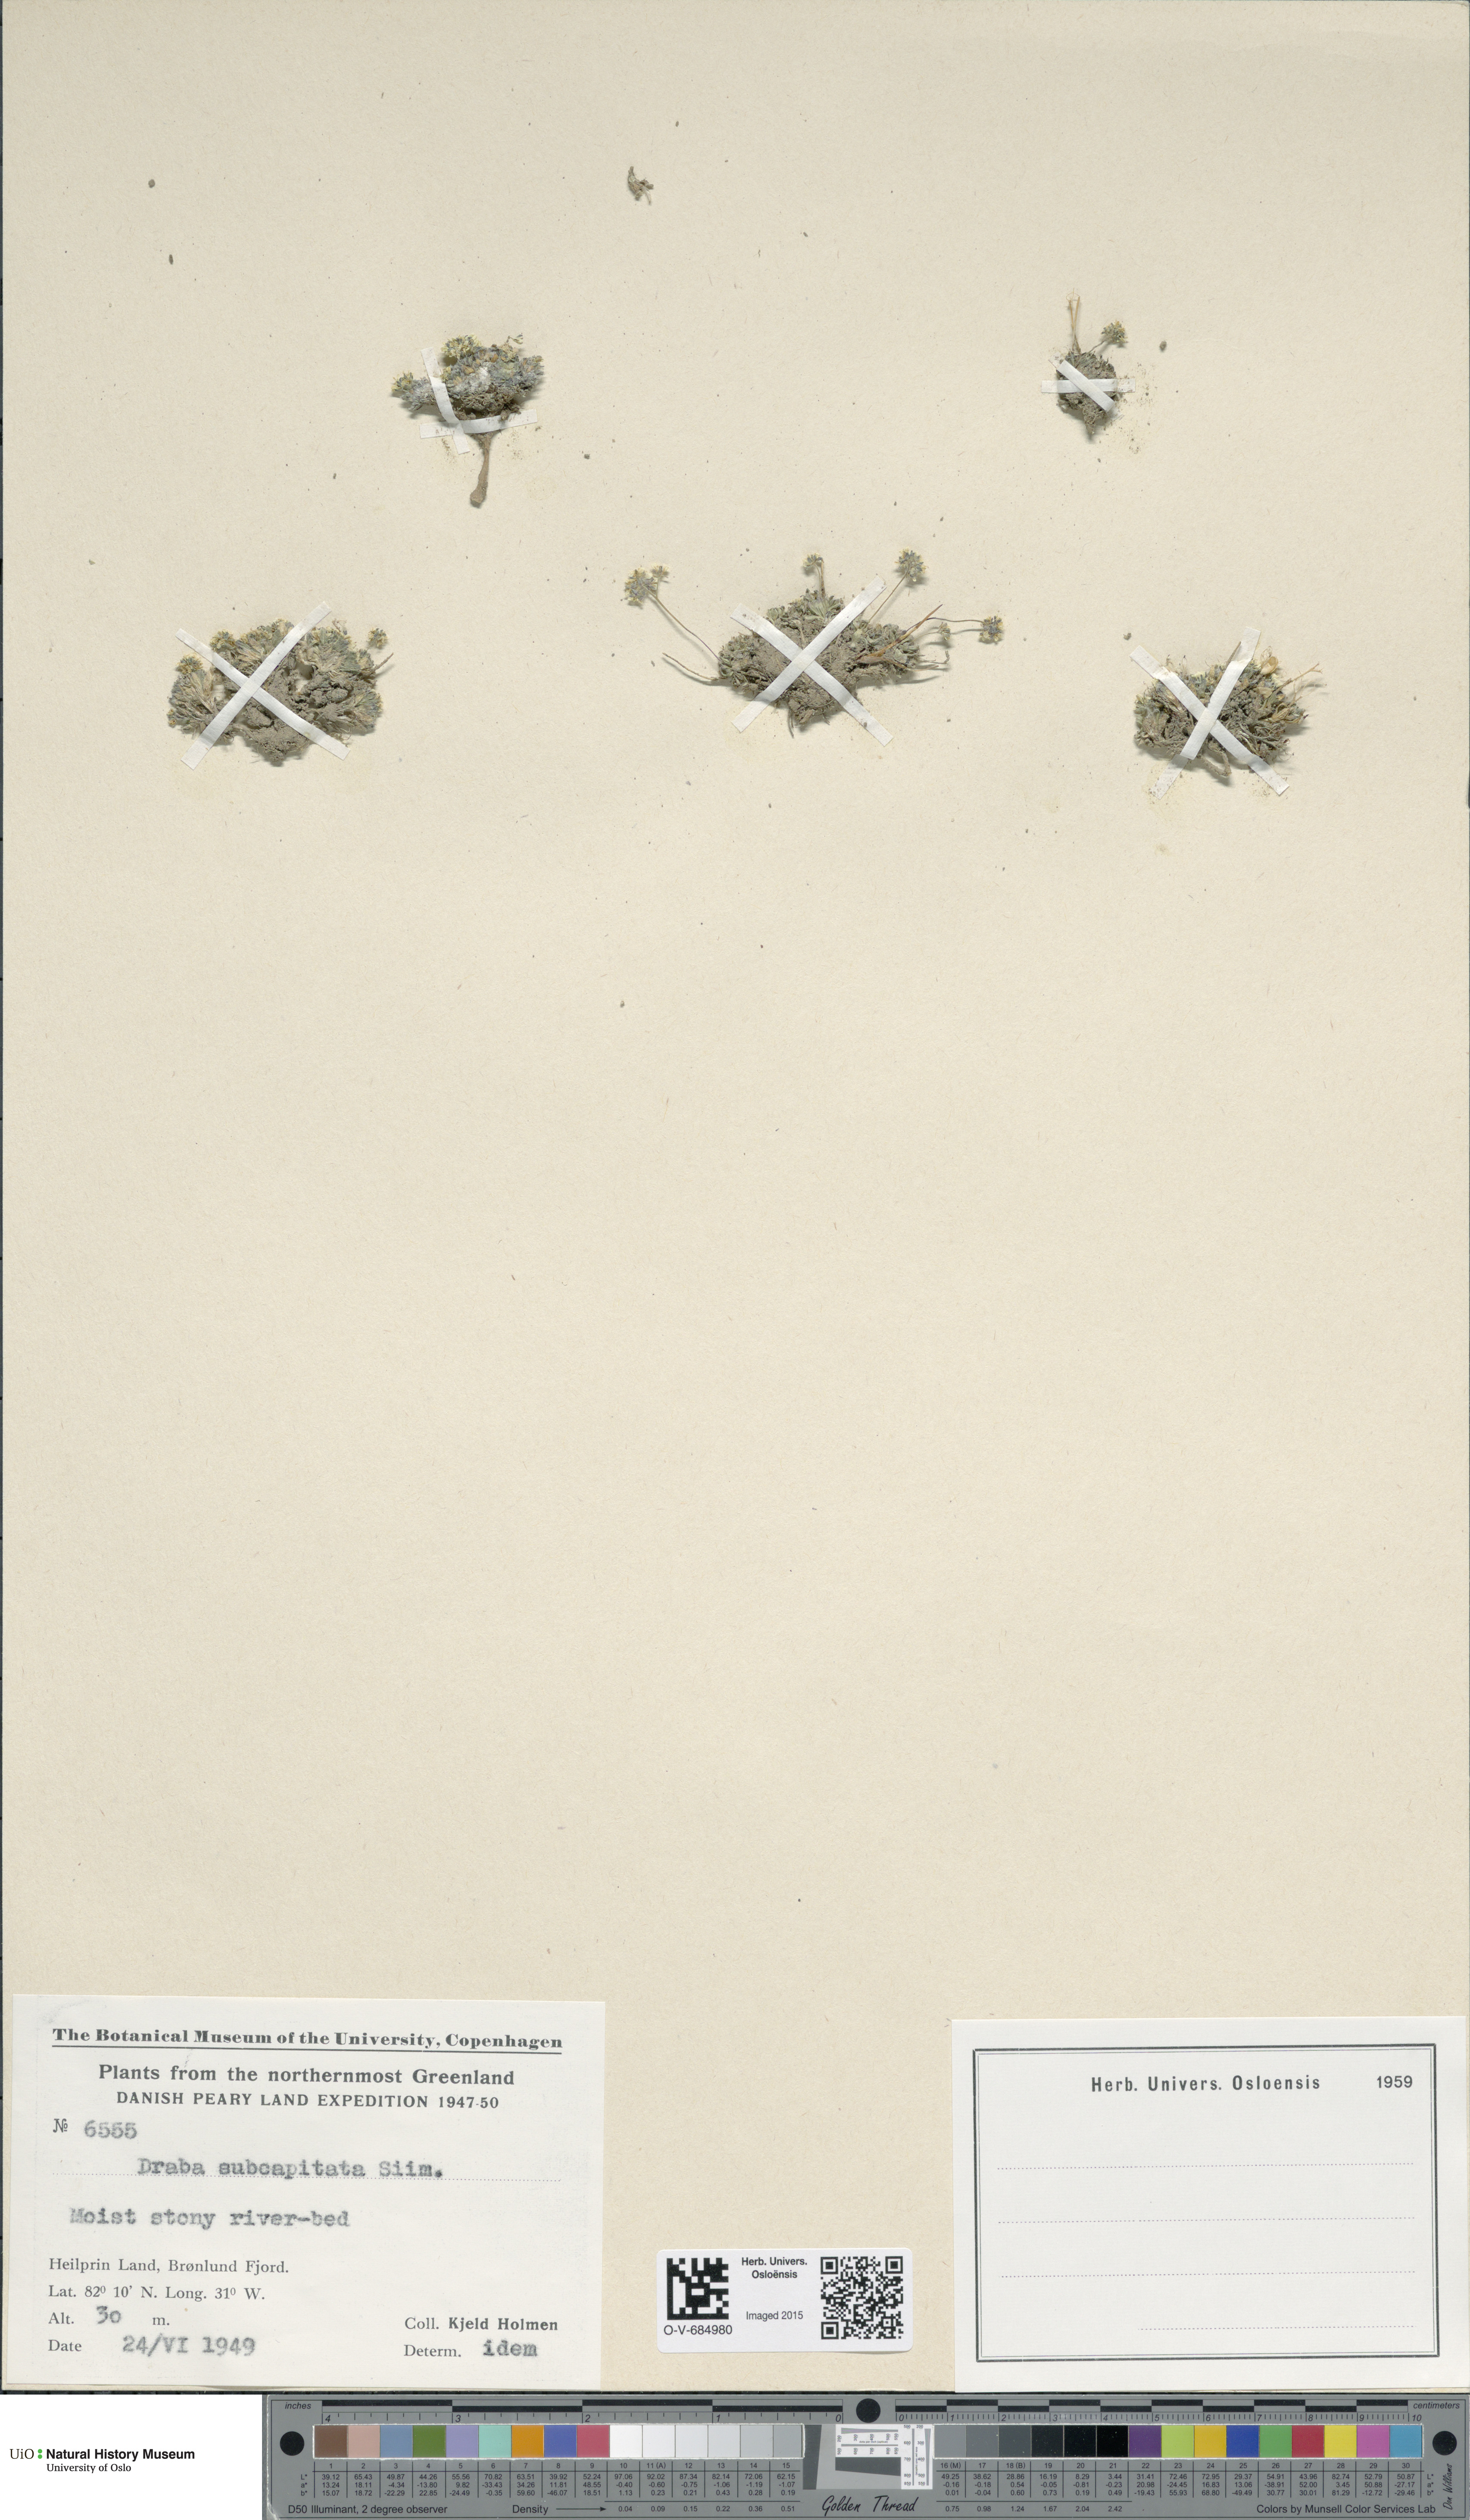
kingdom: Plantae
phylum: Tracheophyta
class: Magnoliopsida
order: Brassicales
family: Brassicaceae
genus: Draba
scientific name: Draba subcapitata
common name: Ellesmere island draba
